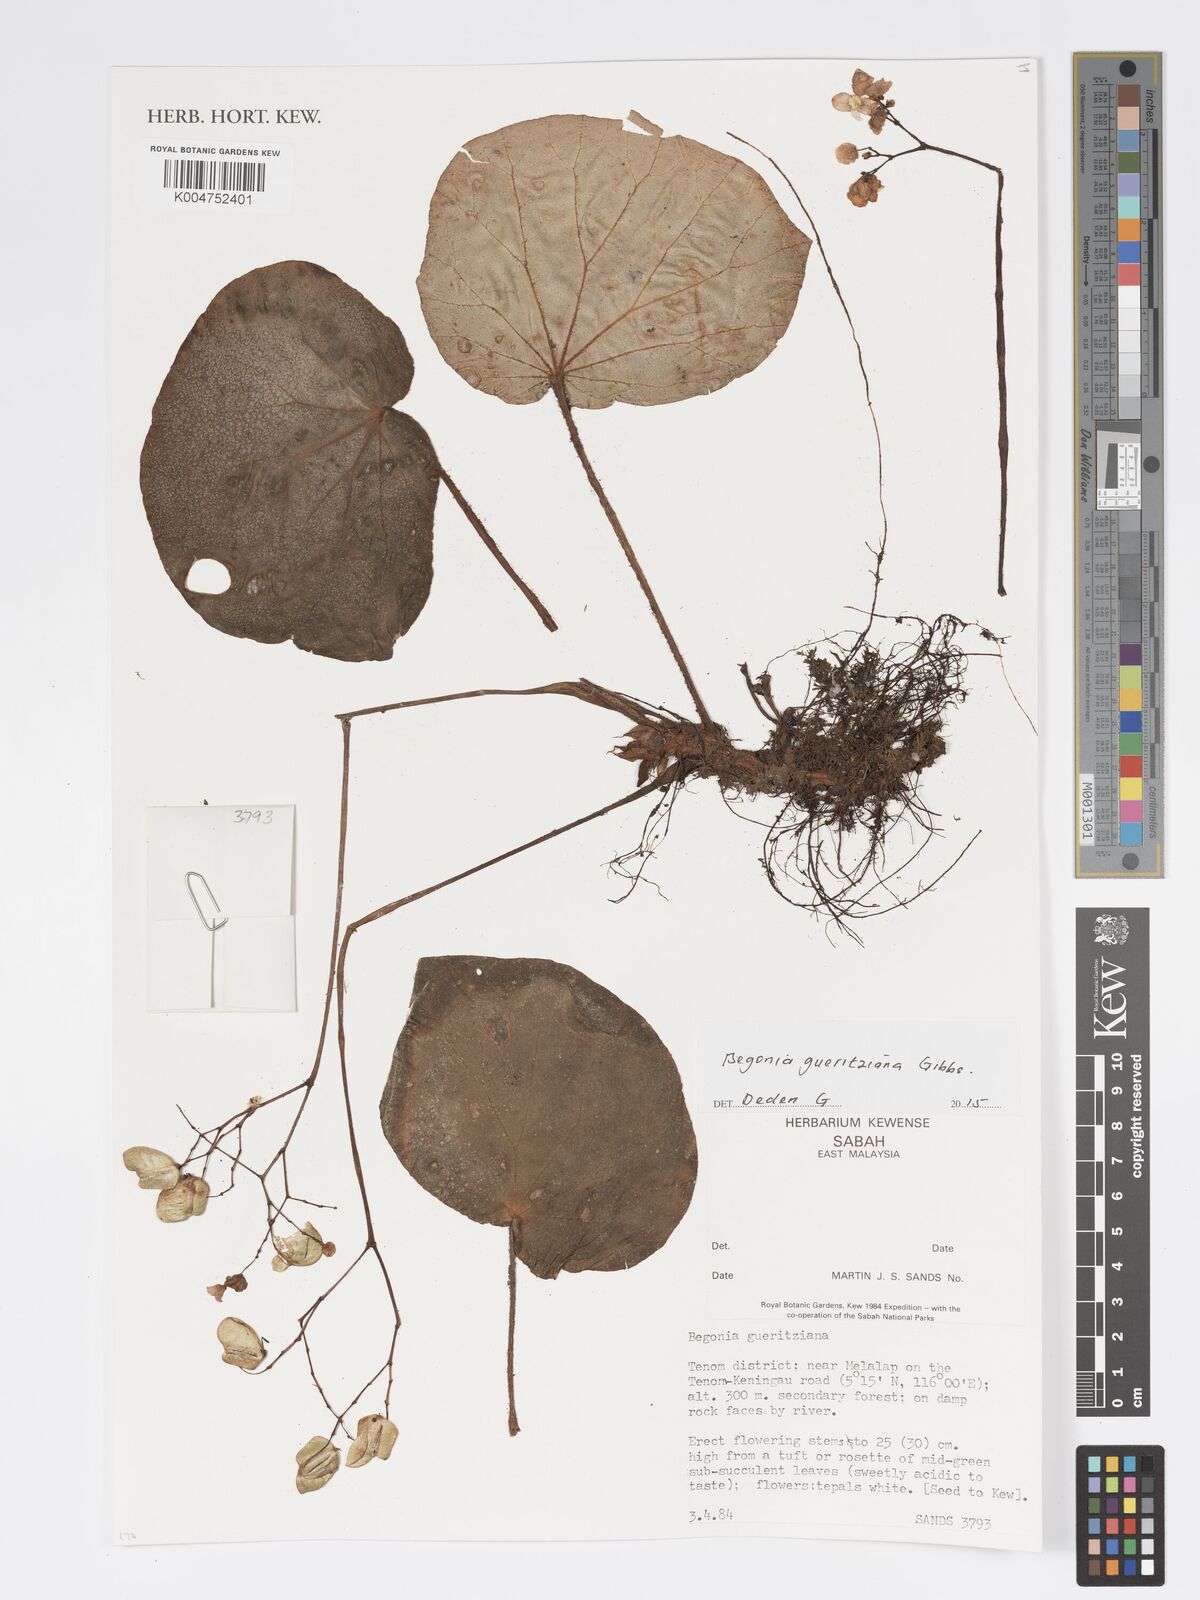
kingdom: Plantae
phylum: Tracheophyta
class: Magnoliopsida
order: Cucurbitales
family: Begoniaceae
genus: Begonia
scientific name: Begonia gueritziana
